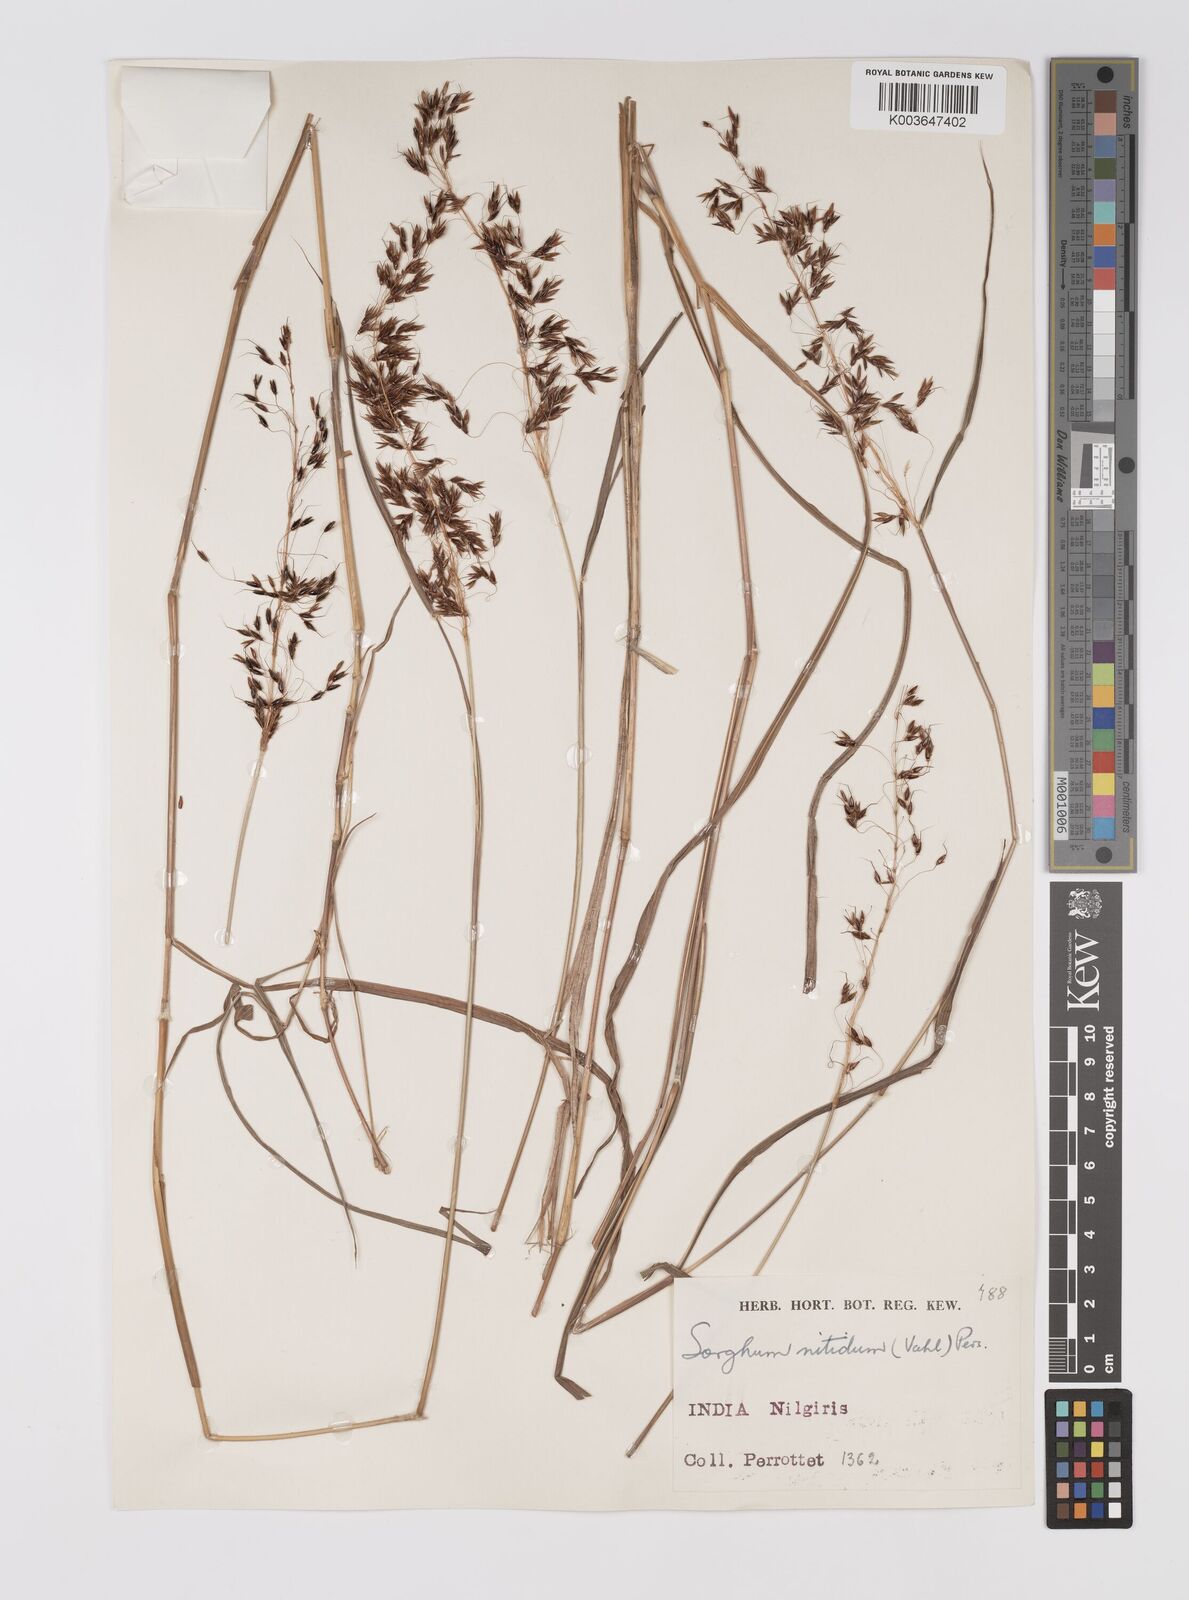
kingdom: Plantae
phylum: Tracheophyta
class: Liliopsida
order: Poales
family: Poaceae
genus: Sorghum
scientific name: Sorghum nitidum
